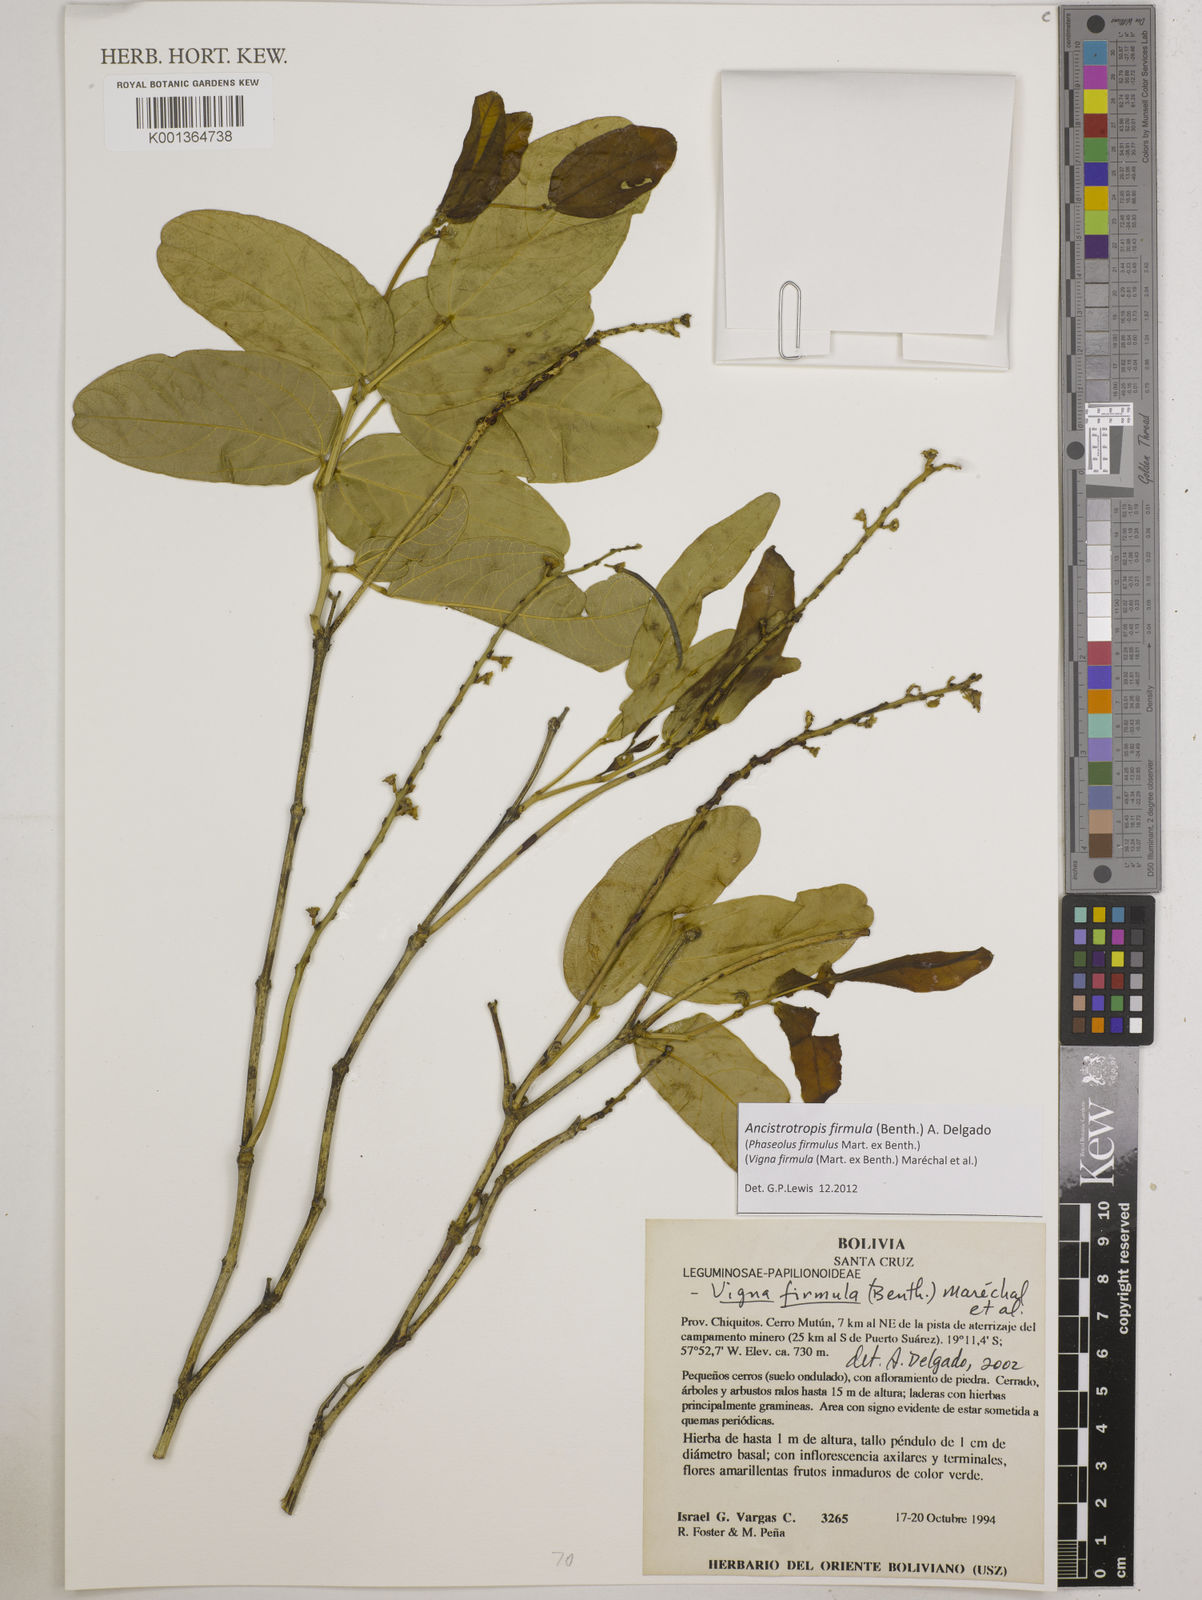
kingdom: Plantae
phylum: Tracheophyta
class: Magnoliopsida
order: Fabales
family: Fabaceae
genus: Ancistrotropis
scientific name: Ancistrotropis firmula
